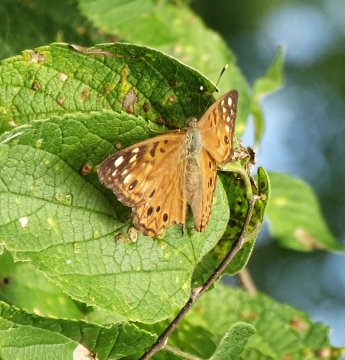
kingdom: Animalia
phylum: Arthropoda
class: Insecta
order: Lepidoptera
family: Nymphalidae
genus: Asterocampa
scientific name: Asterocampa celtis
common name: Hackberry Emperor
